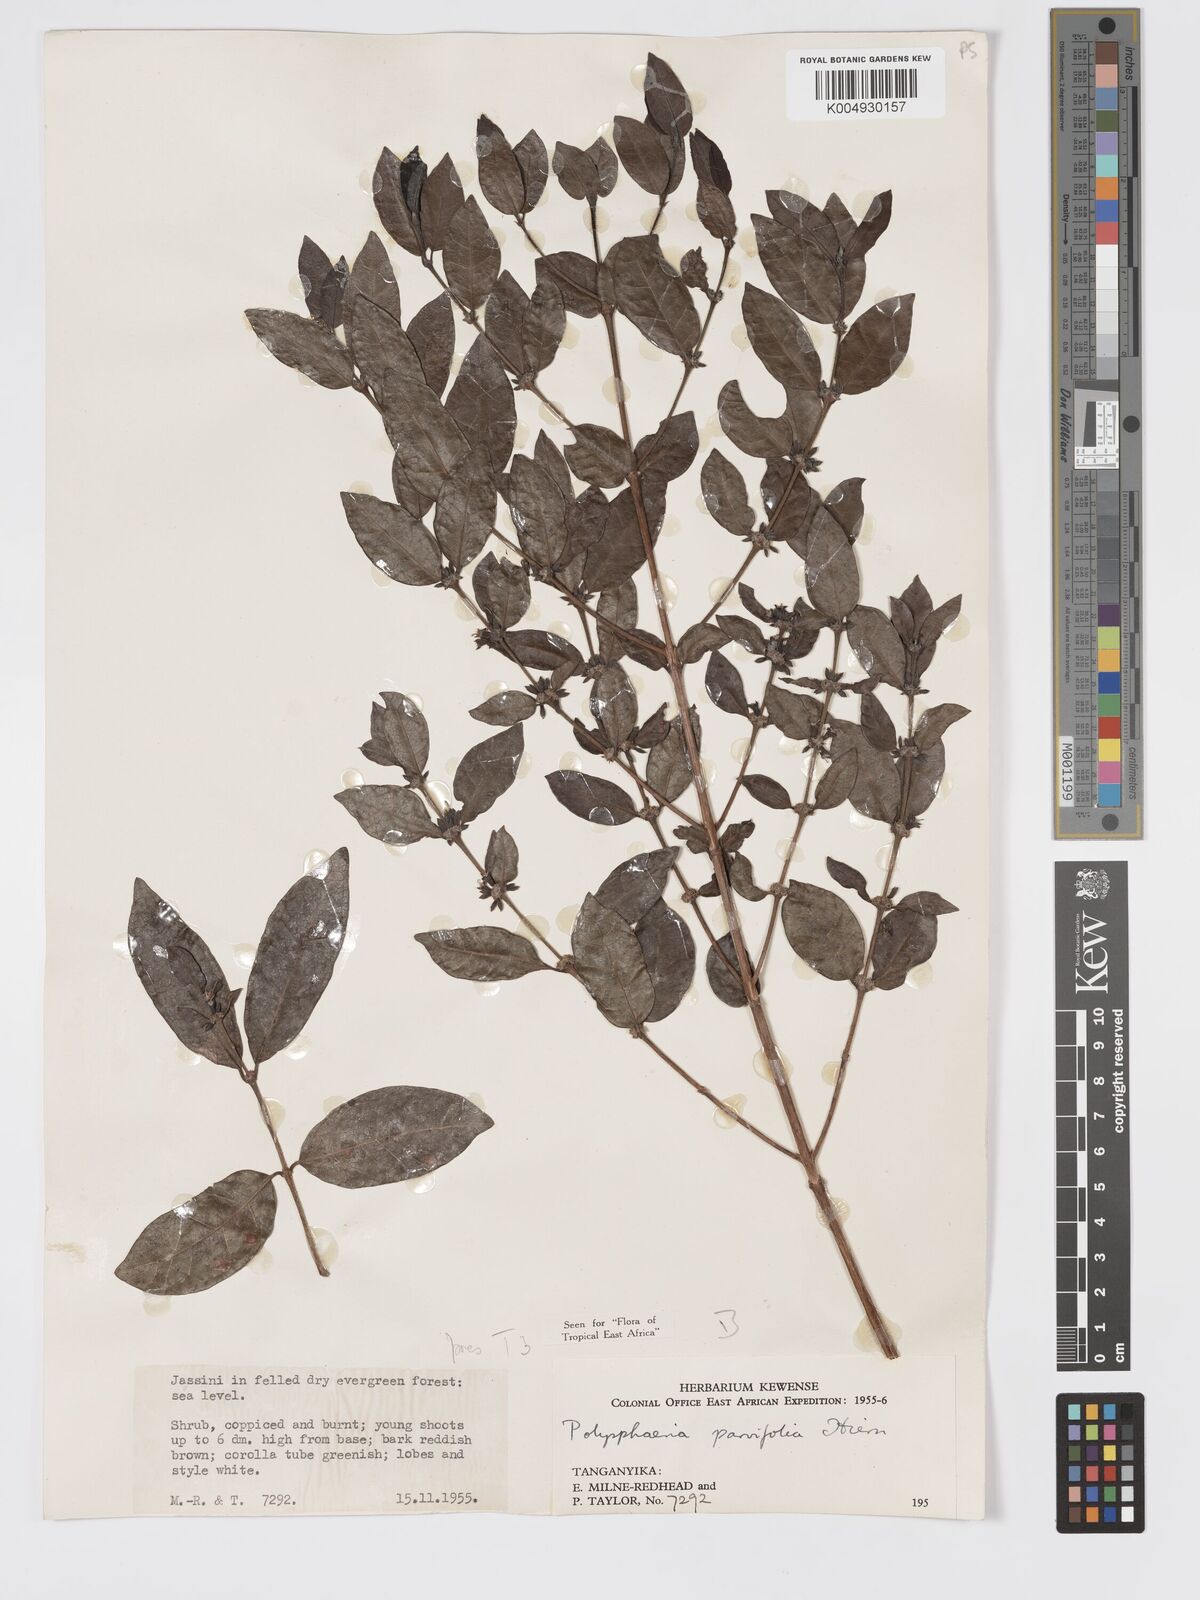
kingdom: Plantae
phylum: Tracheophyta
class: Magnoliopsida
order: Gentianales
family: Rubiaceae
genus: Polysphaeria
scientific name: Polysphaeria parvifolia
